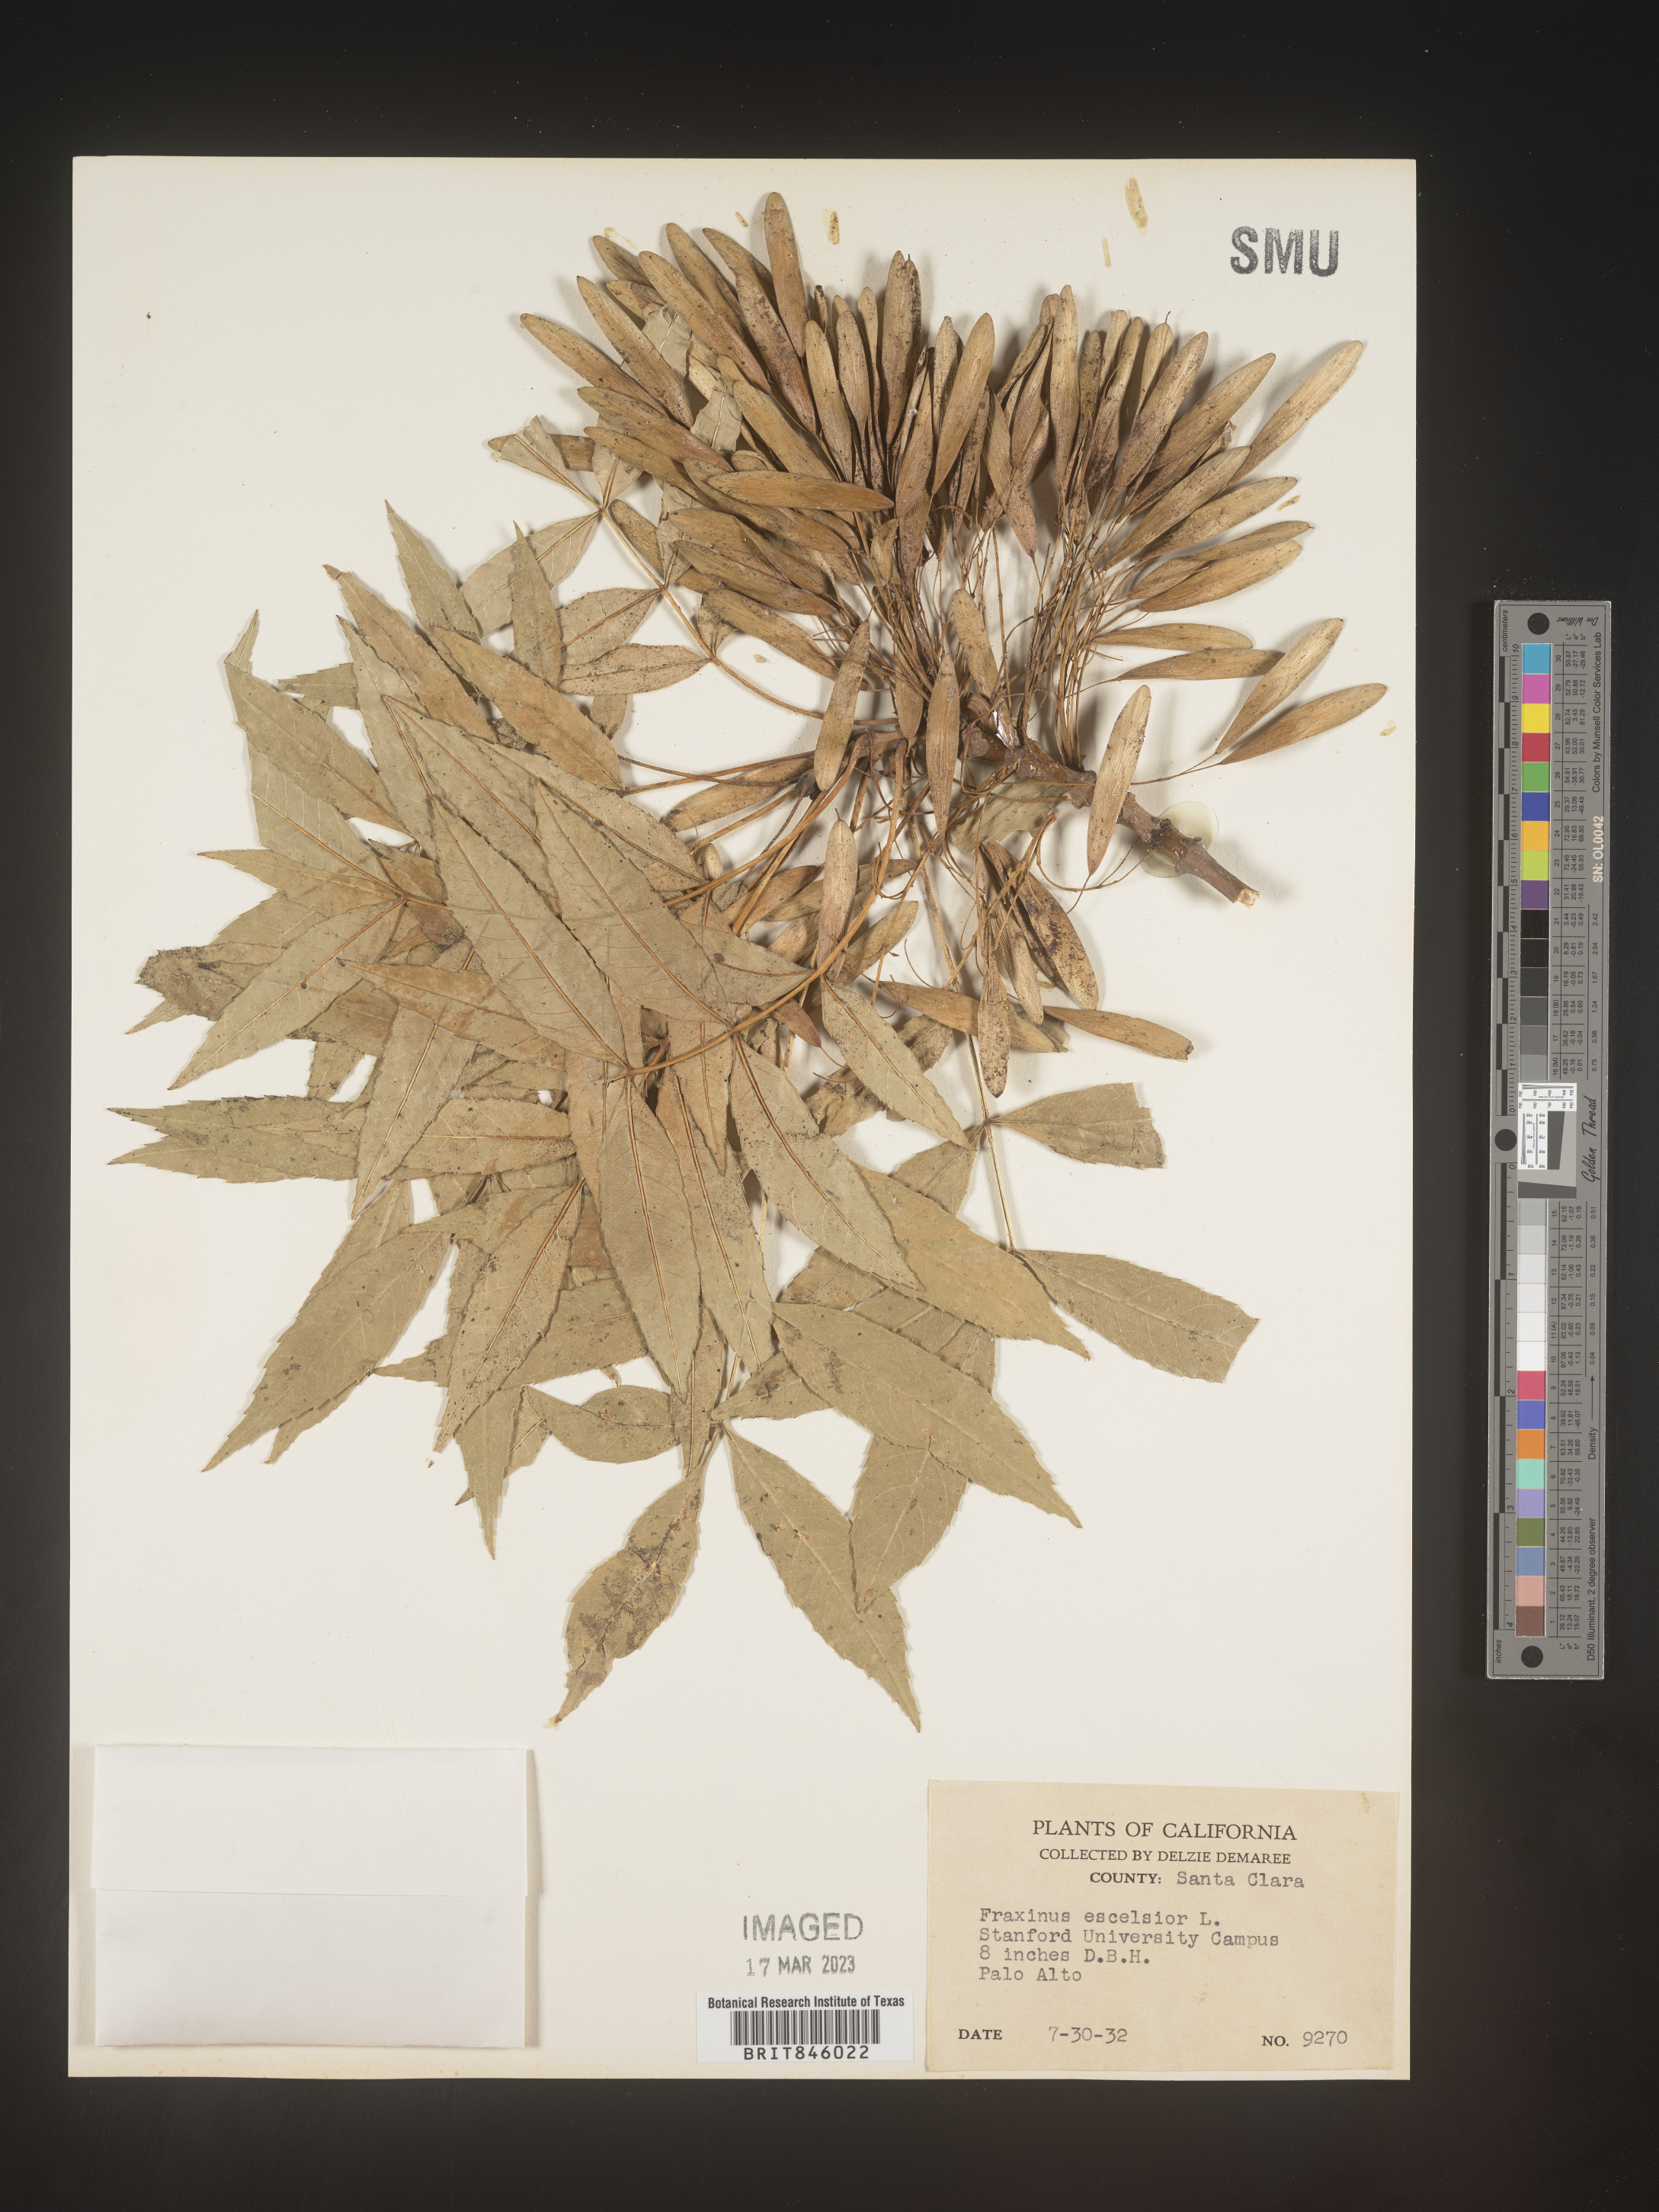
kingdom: Plantae
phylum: Tracheophyta
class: Magnoliopsida
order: Lamiales
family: Oleaceae
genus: Fraxinus
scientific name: Fraxinus excelsior
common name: European ash
